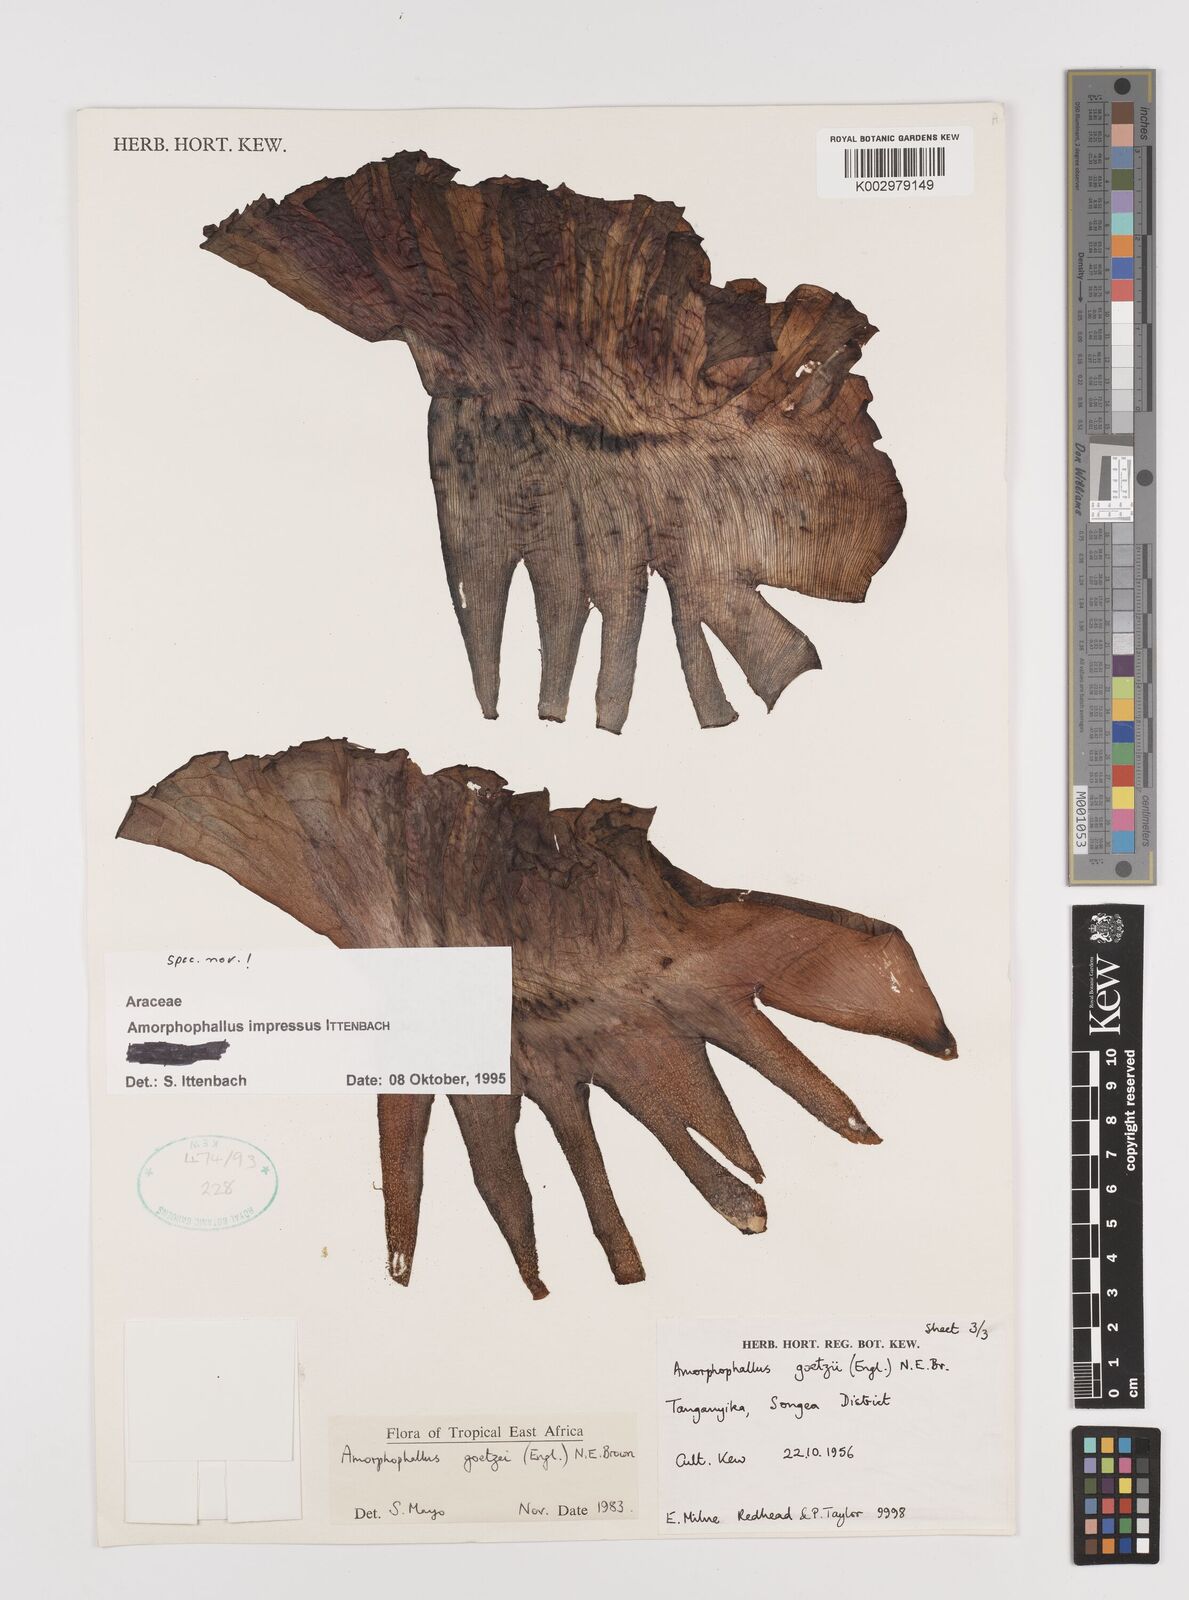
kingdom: Plantae
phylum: Tracheophyta
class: Liliopsida
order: Alismatales
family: Araceae
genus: Amorphophallus
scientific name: Amorphophallus impressus
